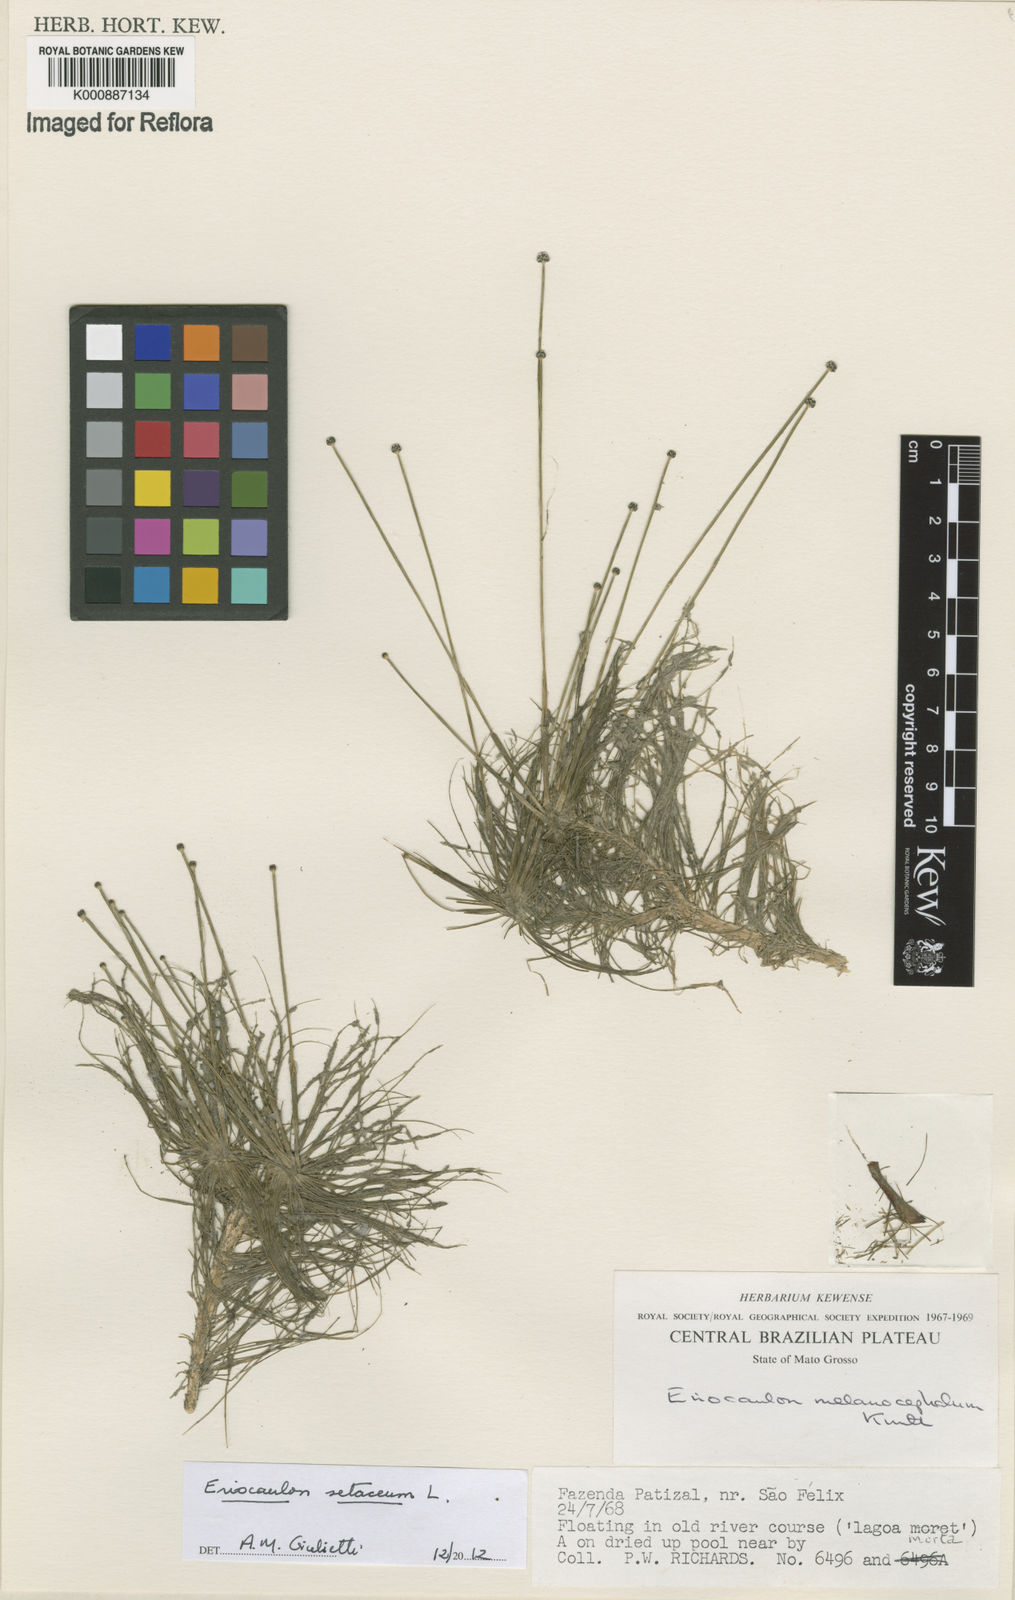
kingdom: Plantae
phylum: Tracheophyta
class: Liliopsida
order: Poales
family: Eriocaulaceae
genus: Eriocaulon
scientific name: Eriocaulon setaceum
